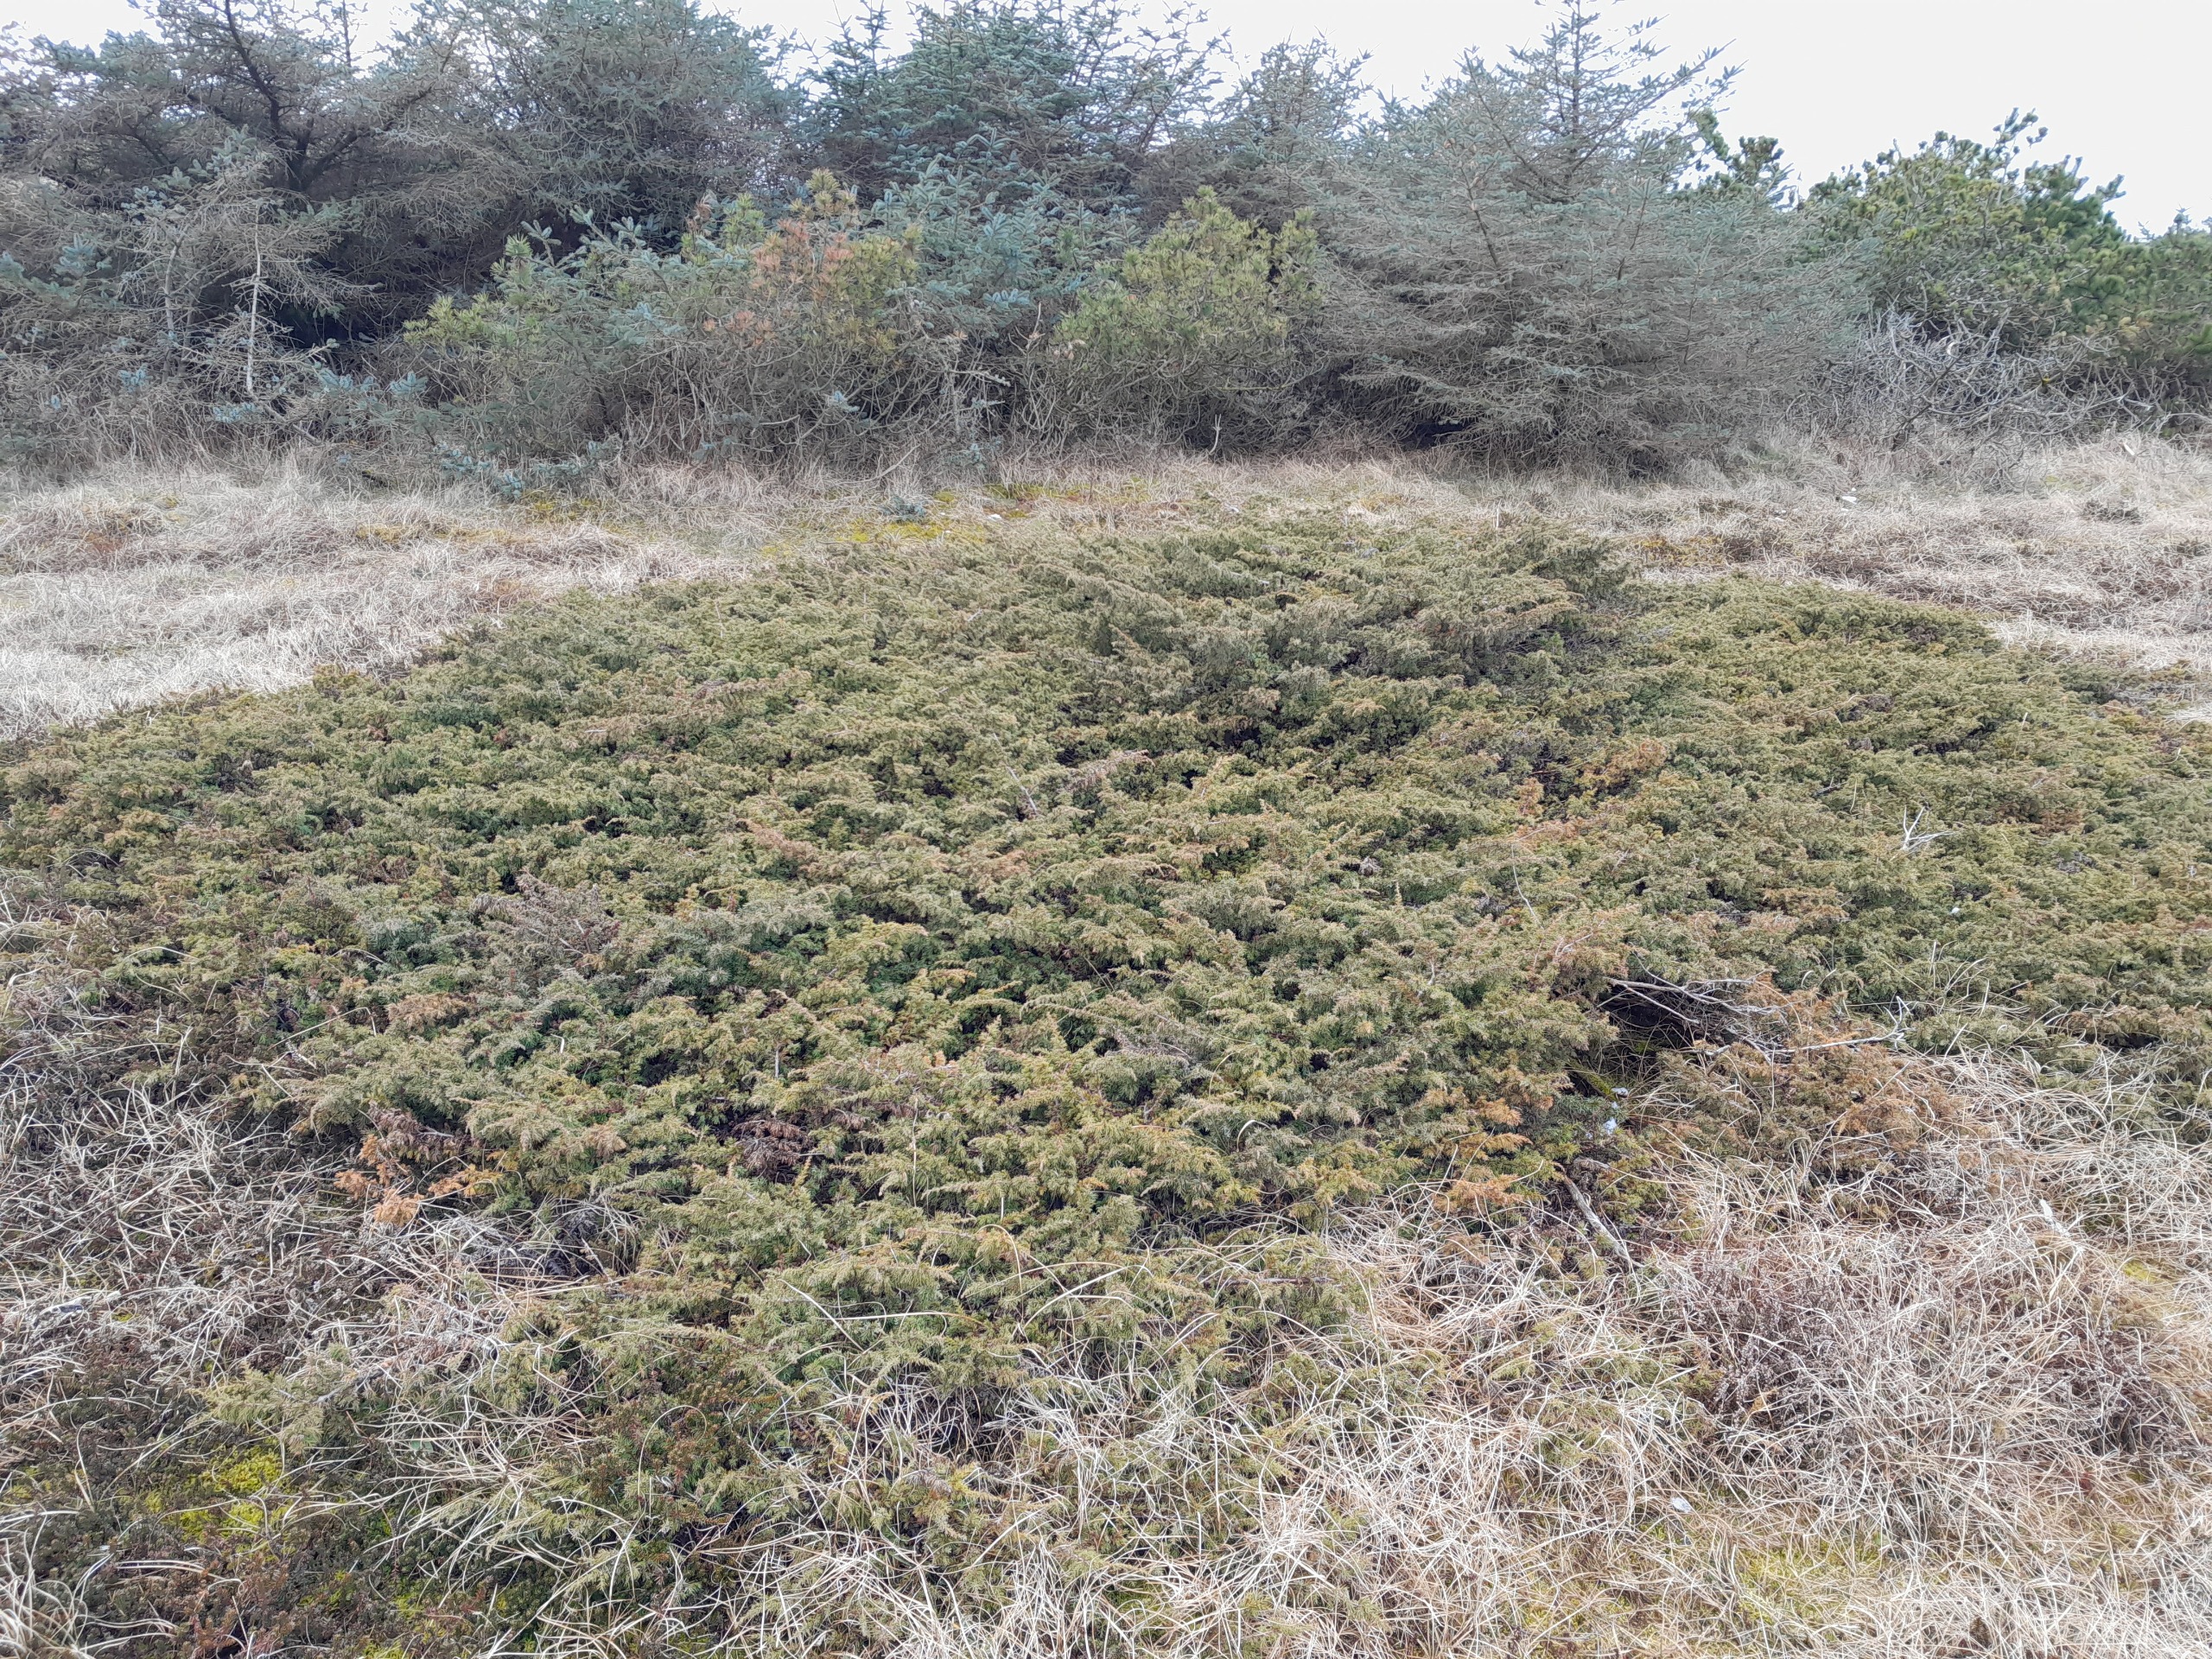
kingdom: Plantae
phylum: Tracheophyta
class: Pinopsida
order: Pinales
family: Cupressaceae
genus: Juniperus
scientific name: Juniperus communis
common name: Almindelig ene
